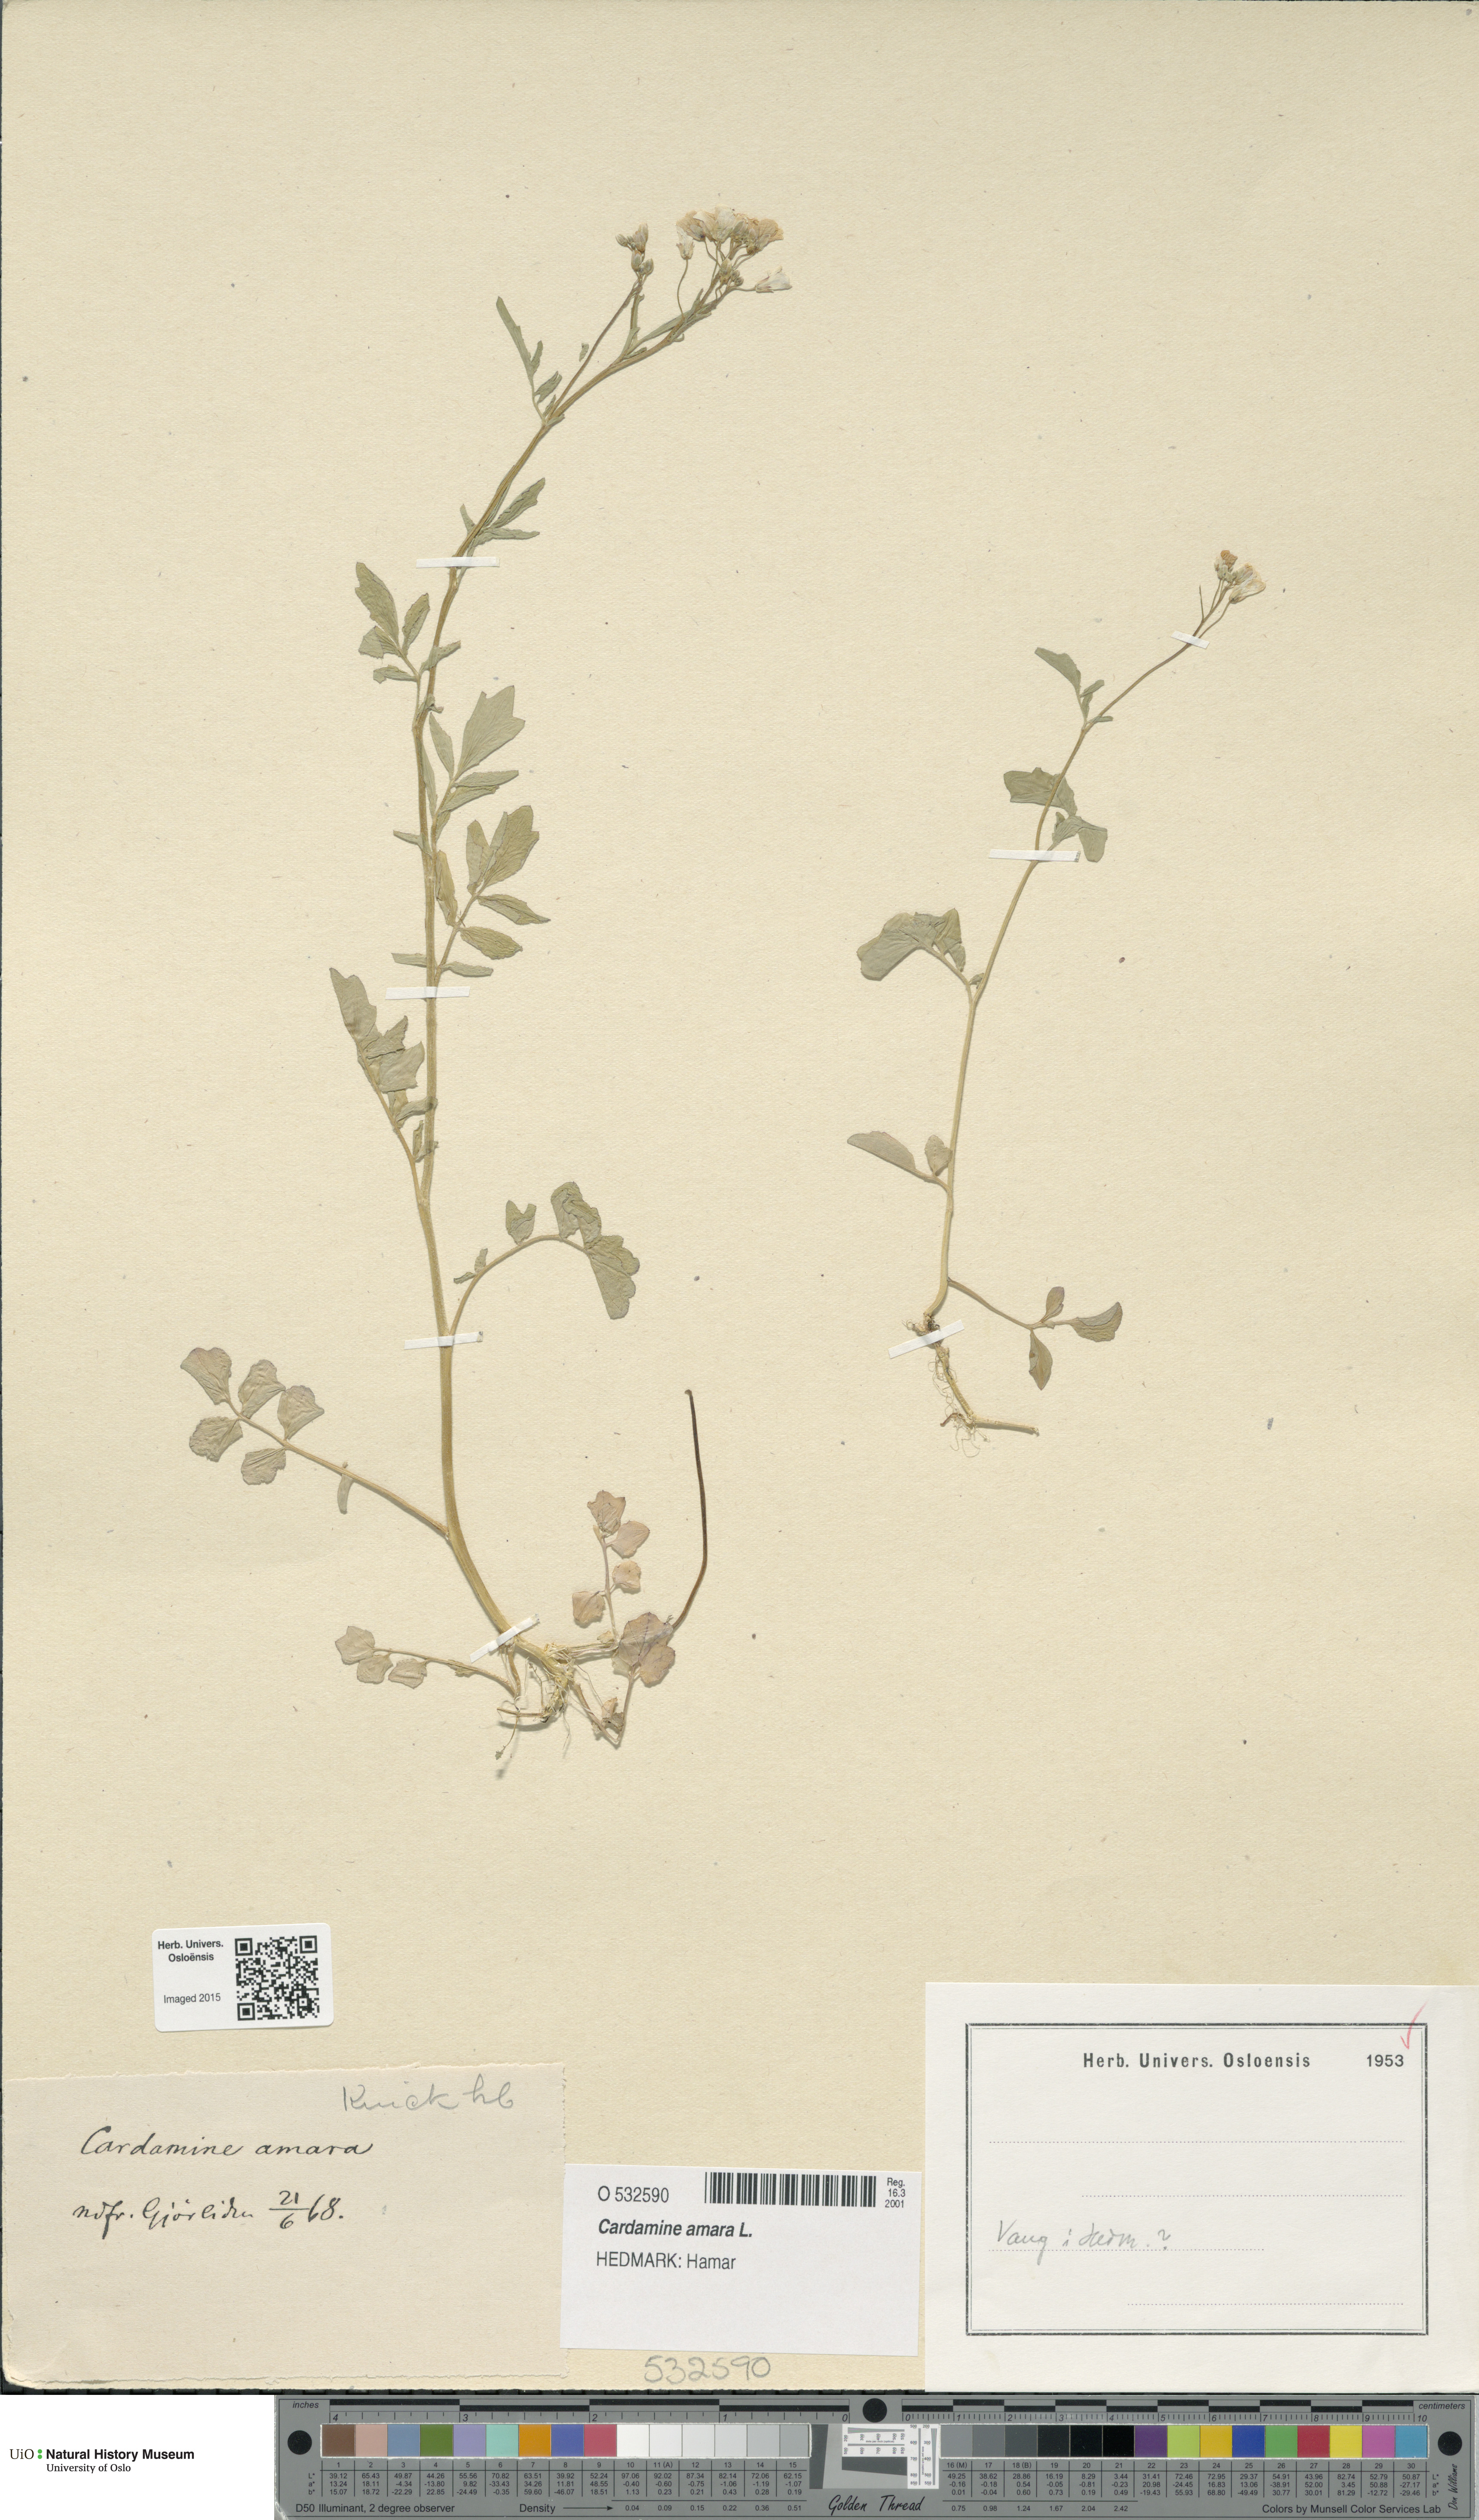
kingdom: Plantae
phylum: Tracheophyta
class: Magnoliopsida
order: Brassicales
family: Brassicaceae
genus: Cardamine
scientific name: Cardamine amara
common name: Large bitter-cress
